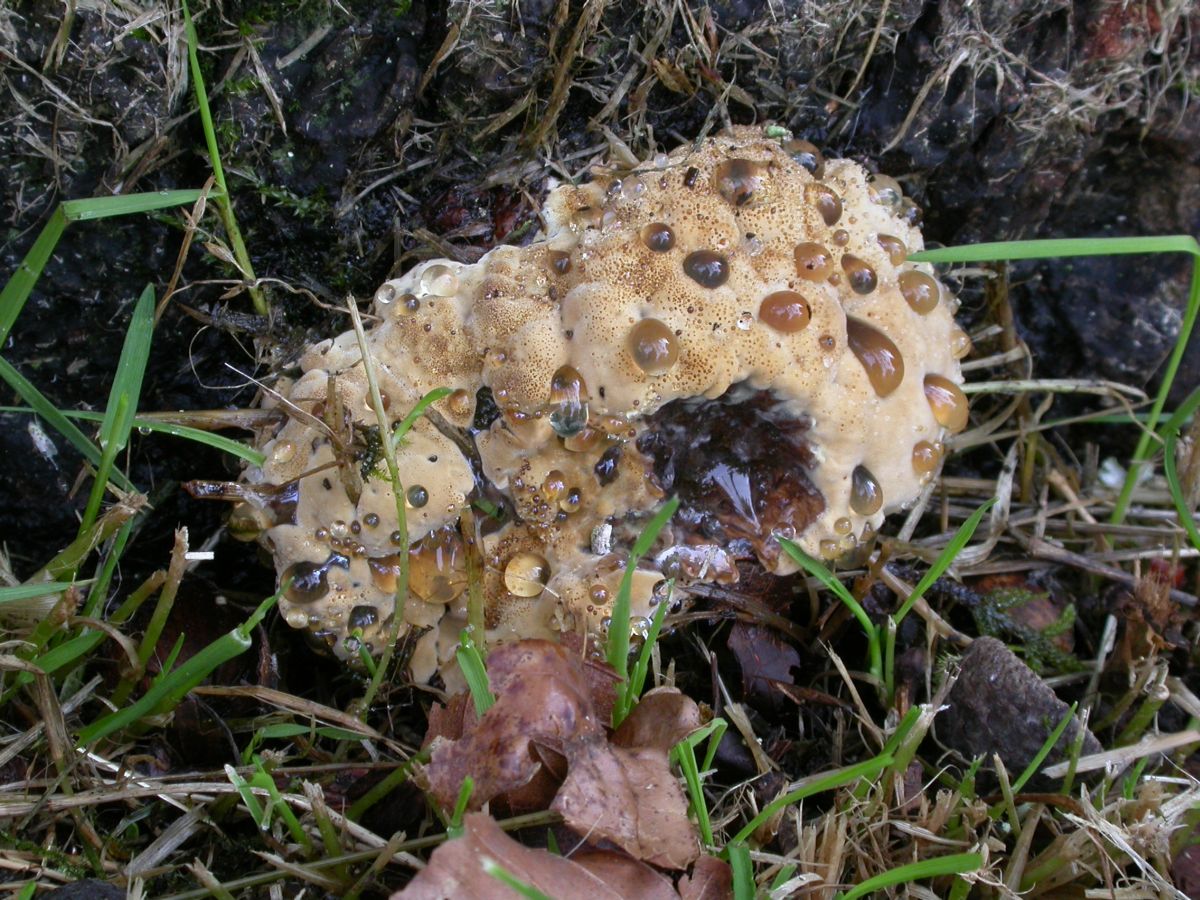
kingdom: Fungi
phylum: Basidiomycota
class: Agaricomycetes
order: Hymenochaetales
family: Hymenochaetaceae
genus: Pseudoinonotus
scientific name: Pseudoinonotus dryadeus
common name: ege-spejlporesvamp
